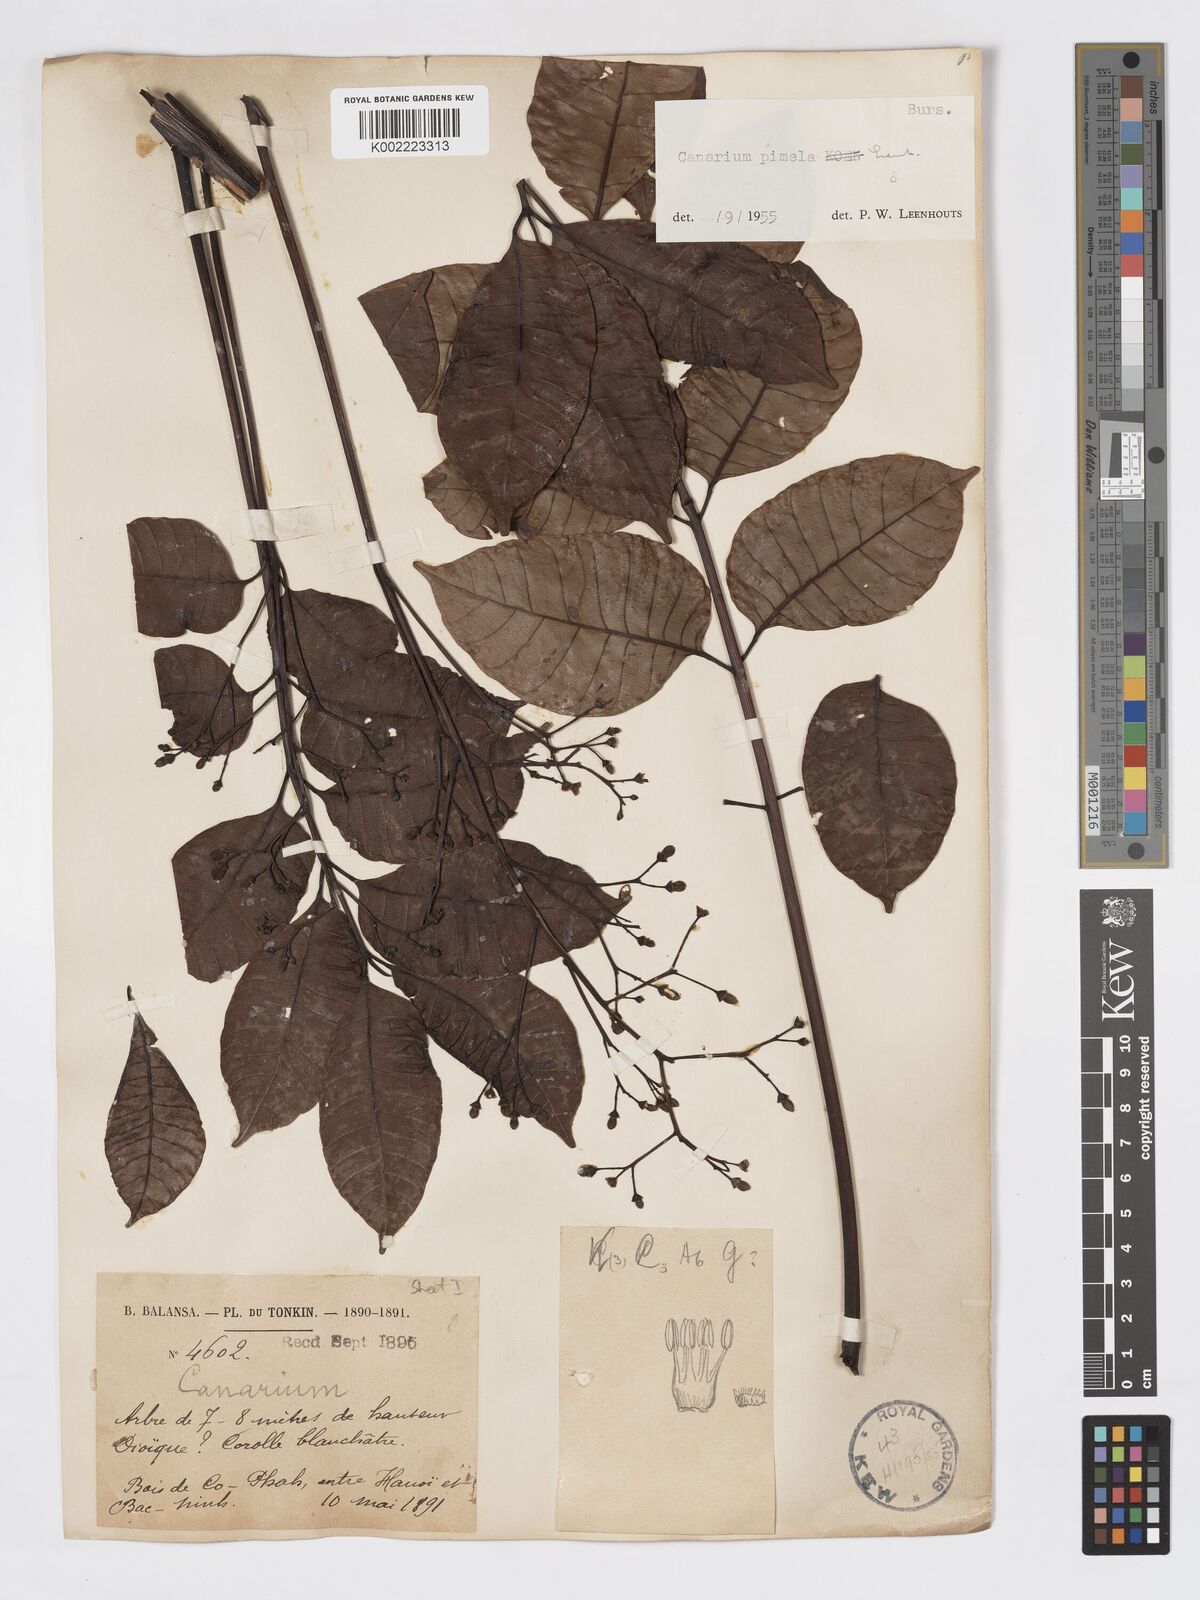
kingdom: Plantae
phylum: Tracheophyta
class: Magnoliopsida
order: Sapindales
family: Burseraceae
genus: Canarium
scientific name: Canarium
